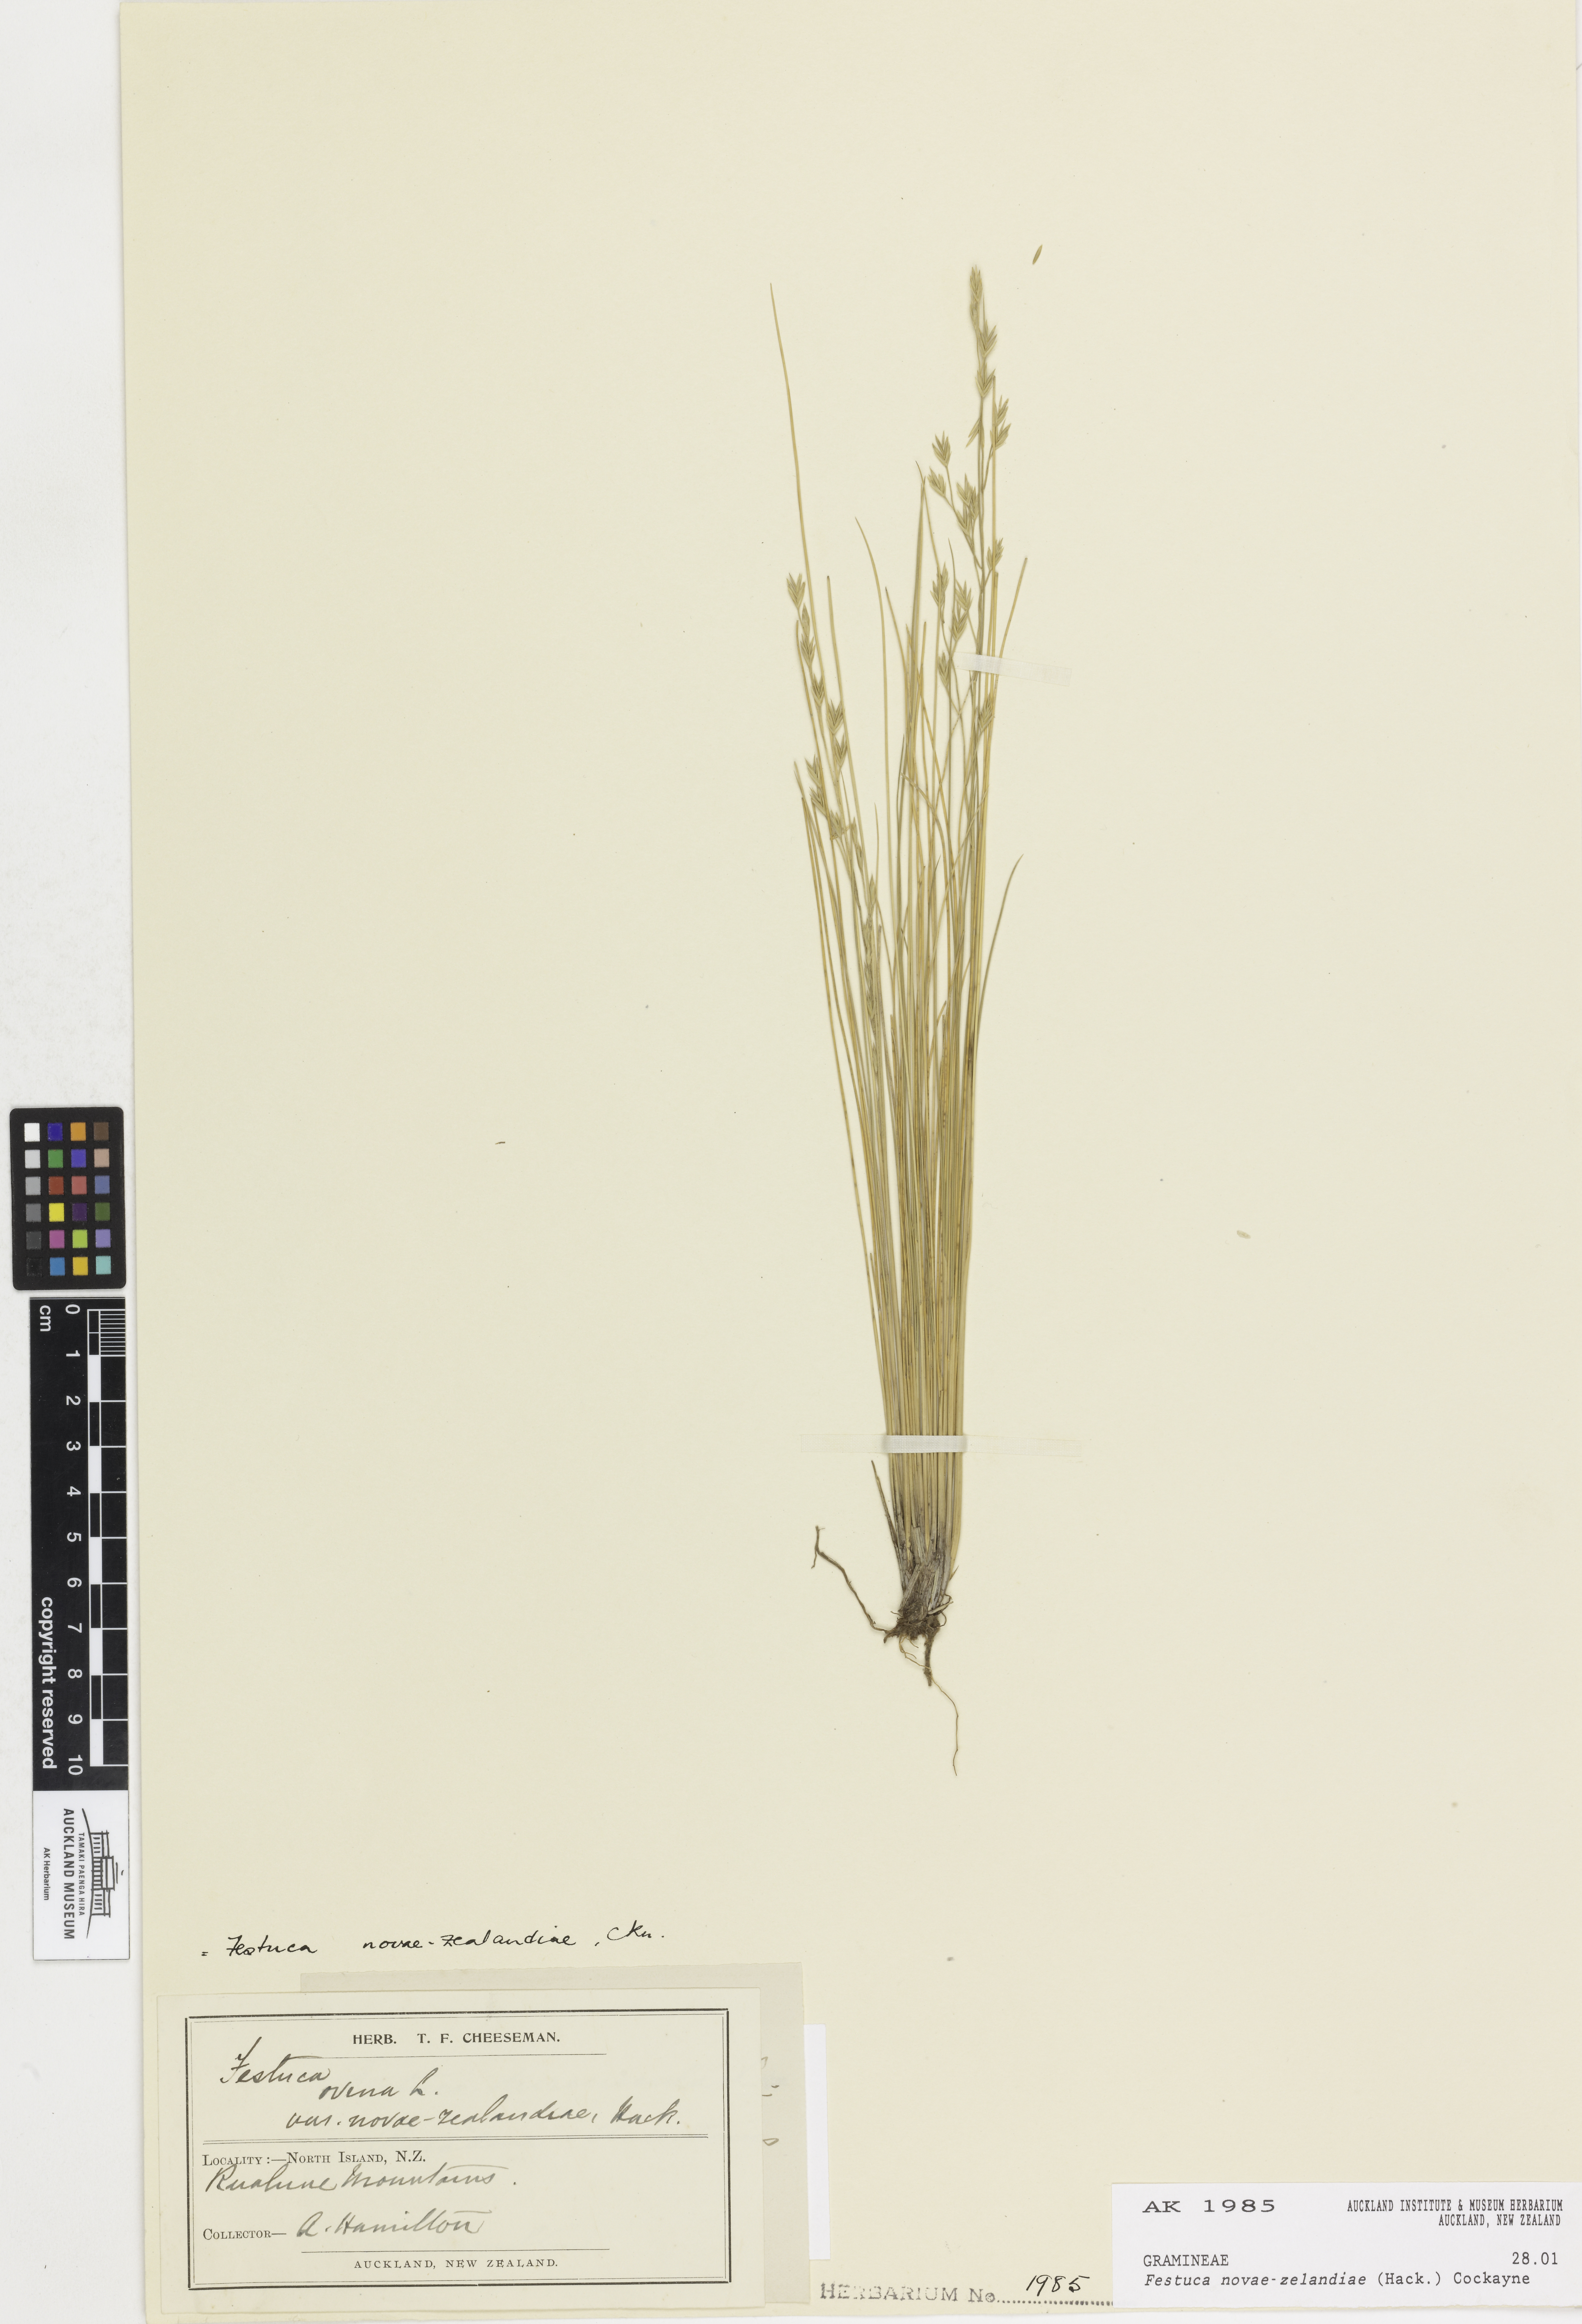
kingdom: Plantae
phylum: Tracheophyta
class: Liliopsida
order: Poales
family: Poaceae
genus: Festuca
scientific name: Festuca novae-zelandiae
